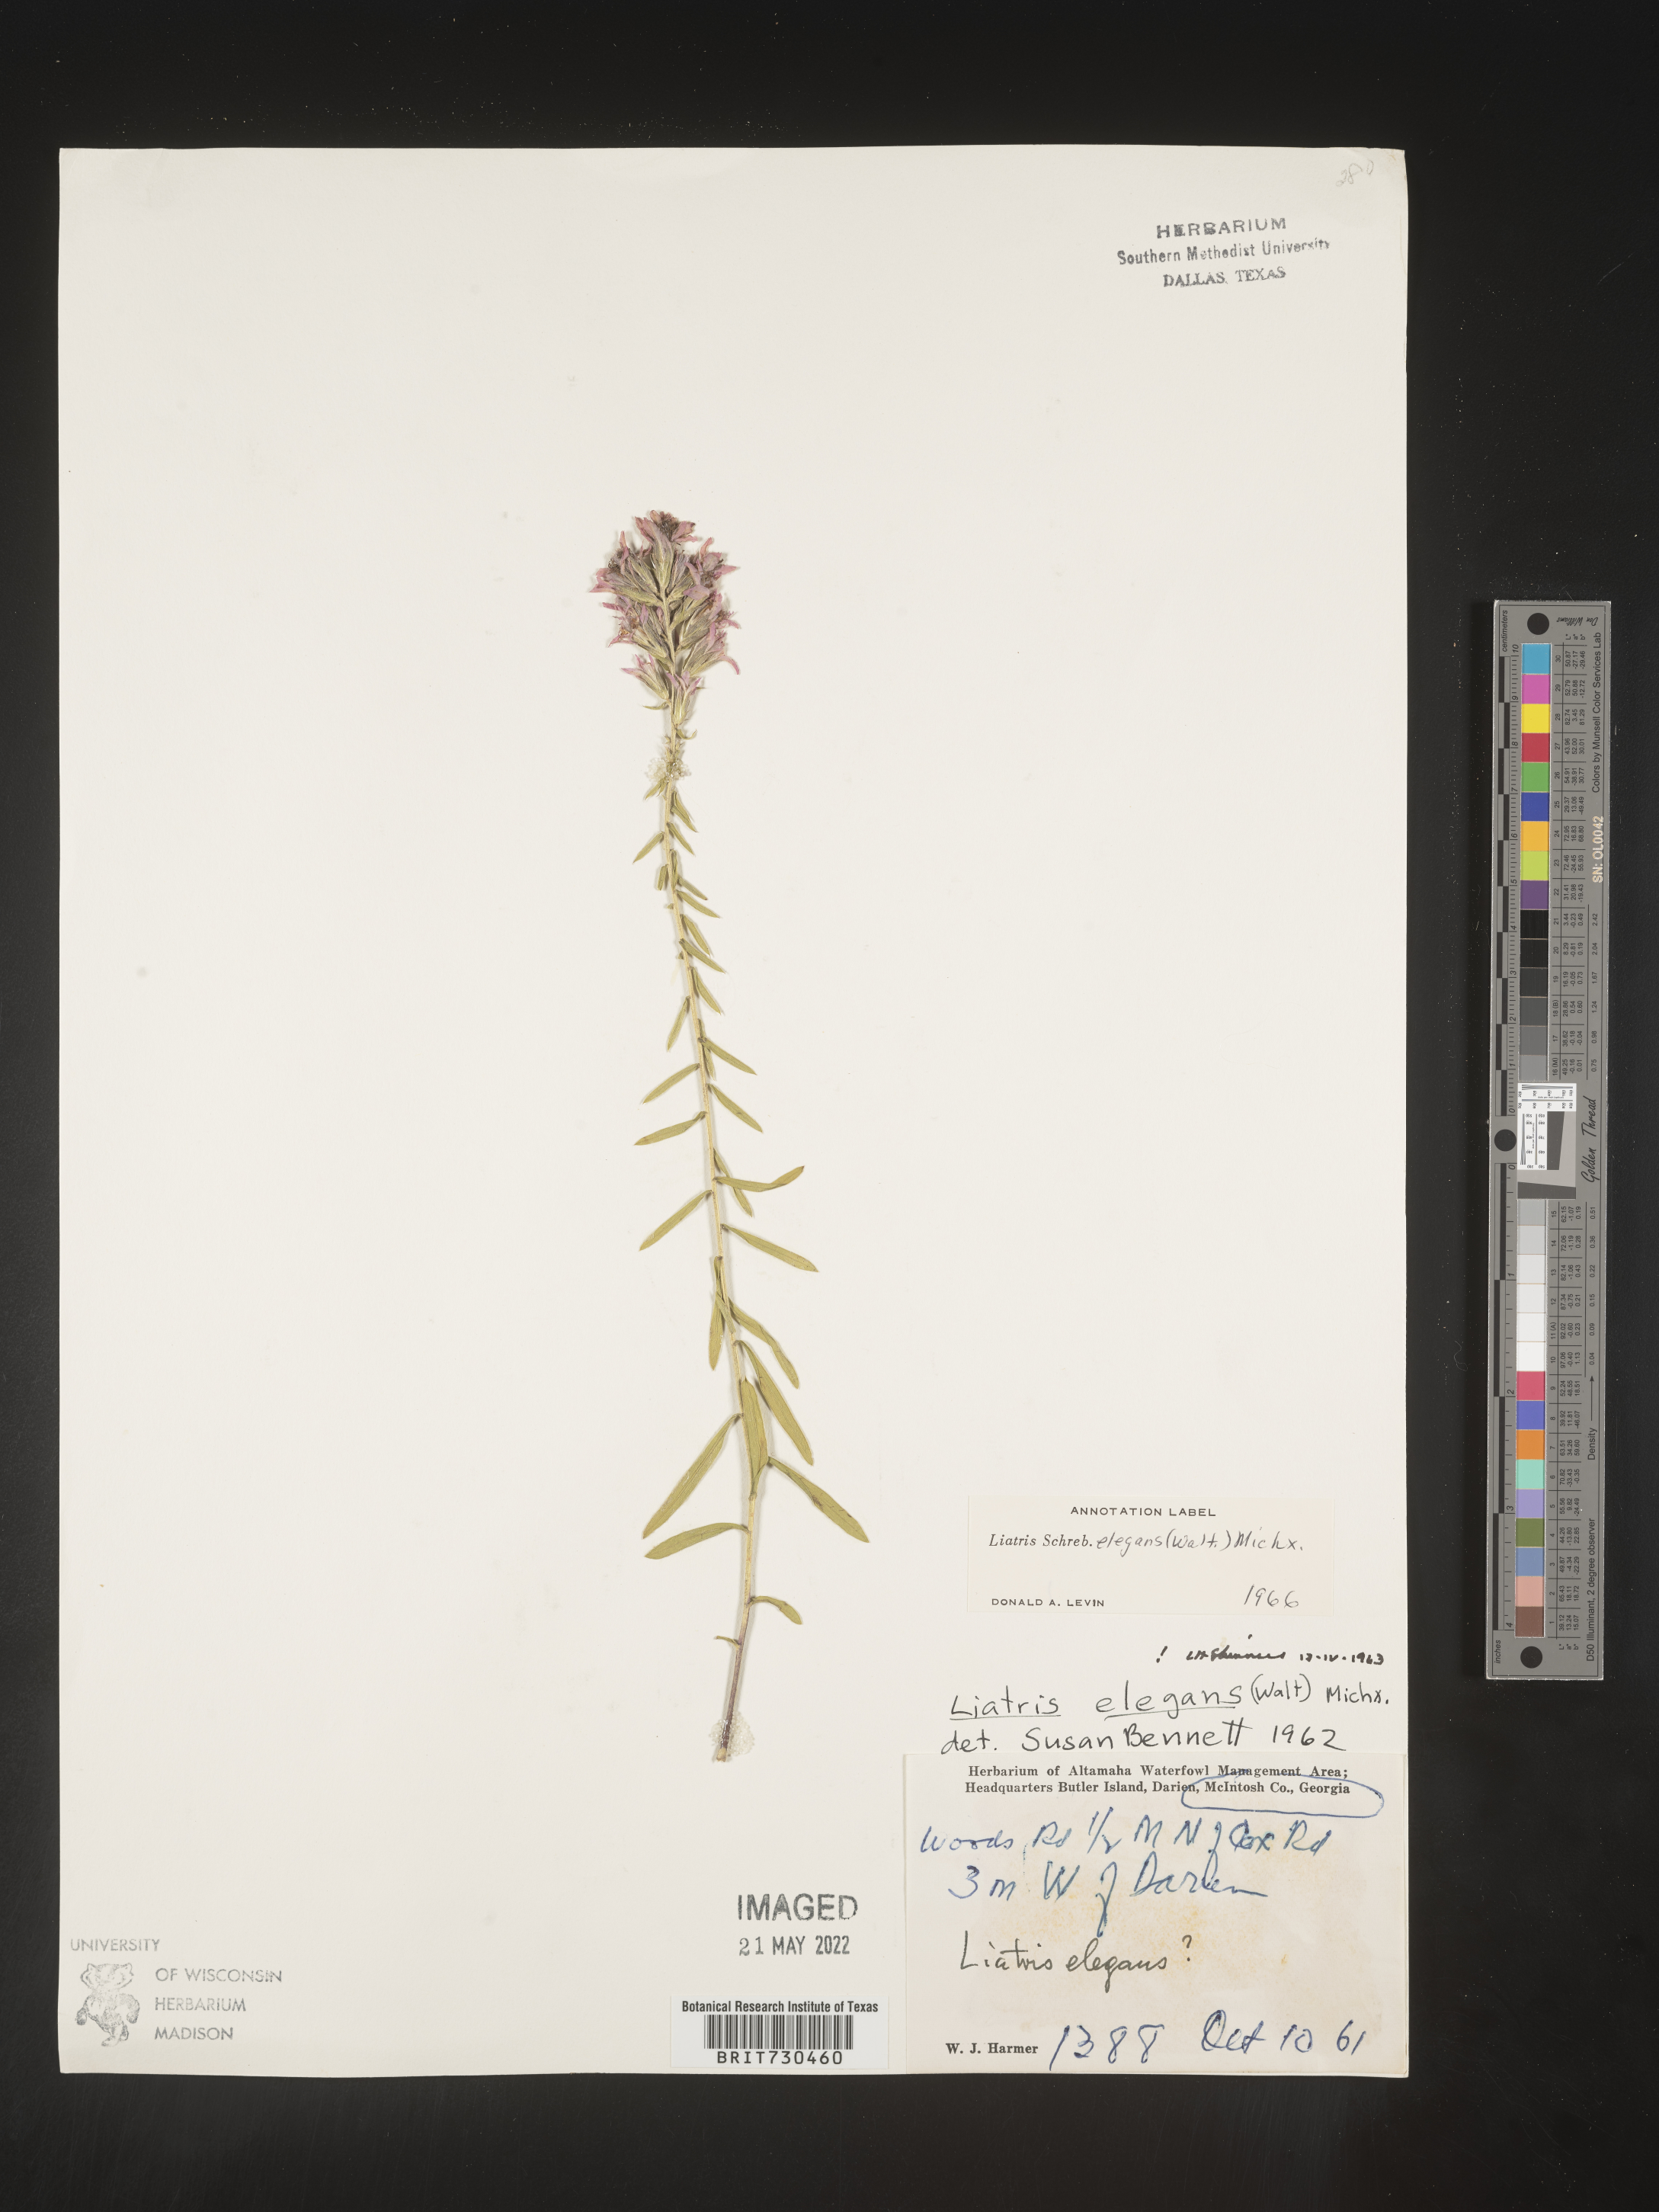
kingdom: Plantae
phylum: Tracheophyta
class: Magnoliopsida
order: Asterales
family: Asteraceae
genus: Liatris
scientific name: Liatris elegans
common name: Pinkscale gayfeather
